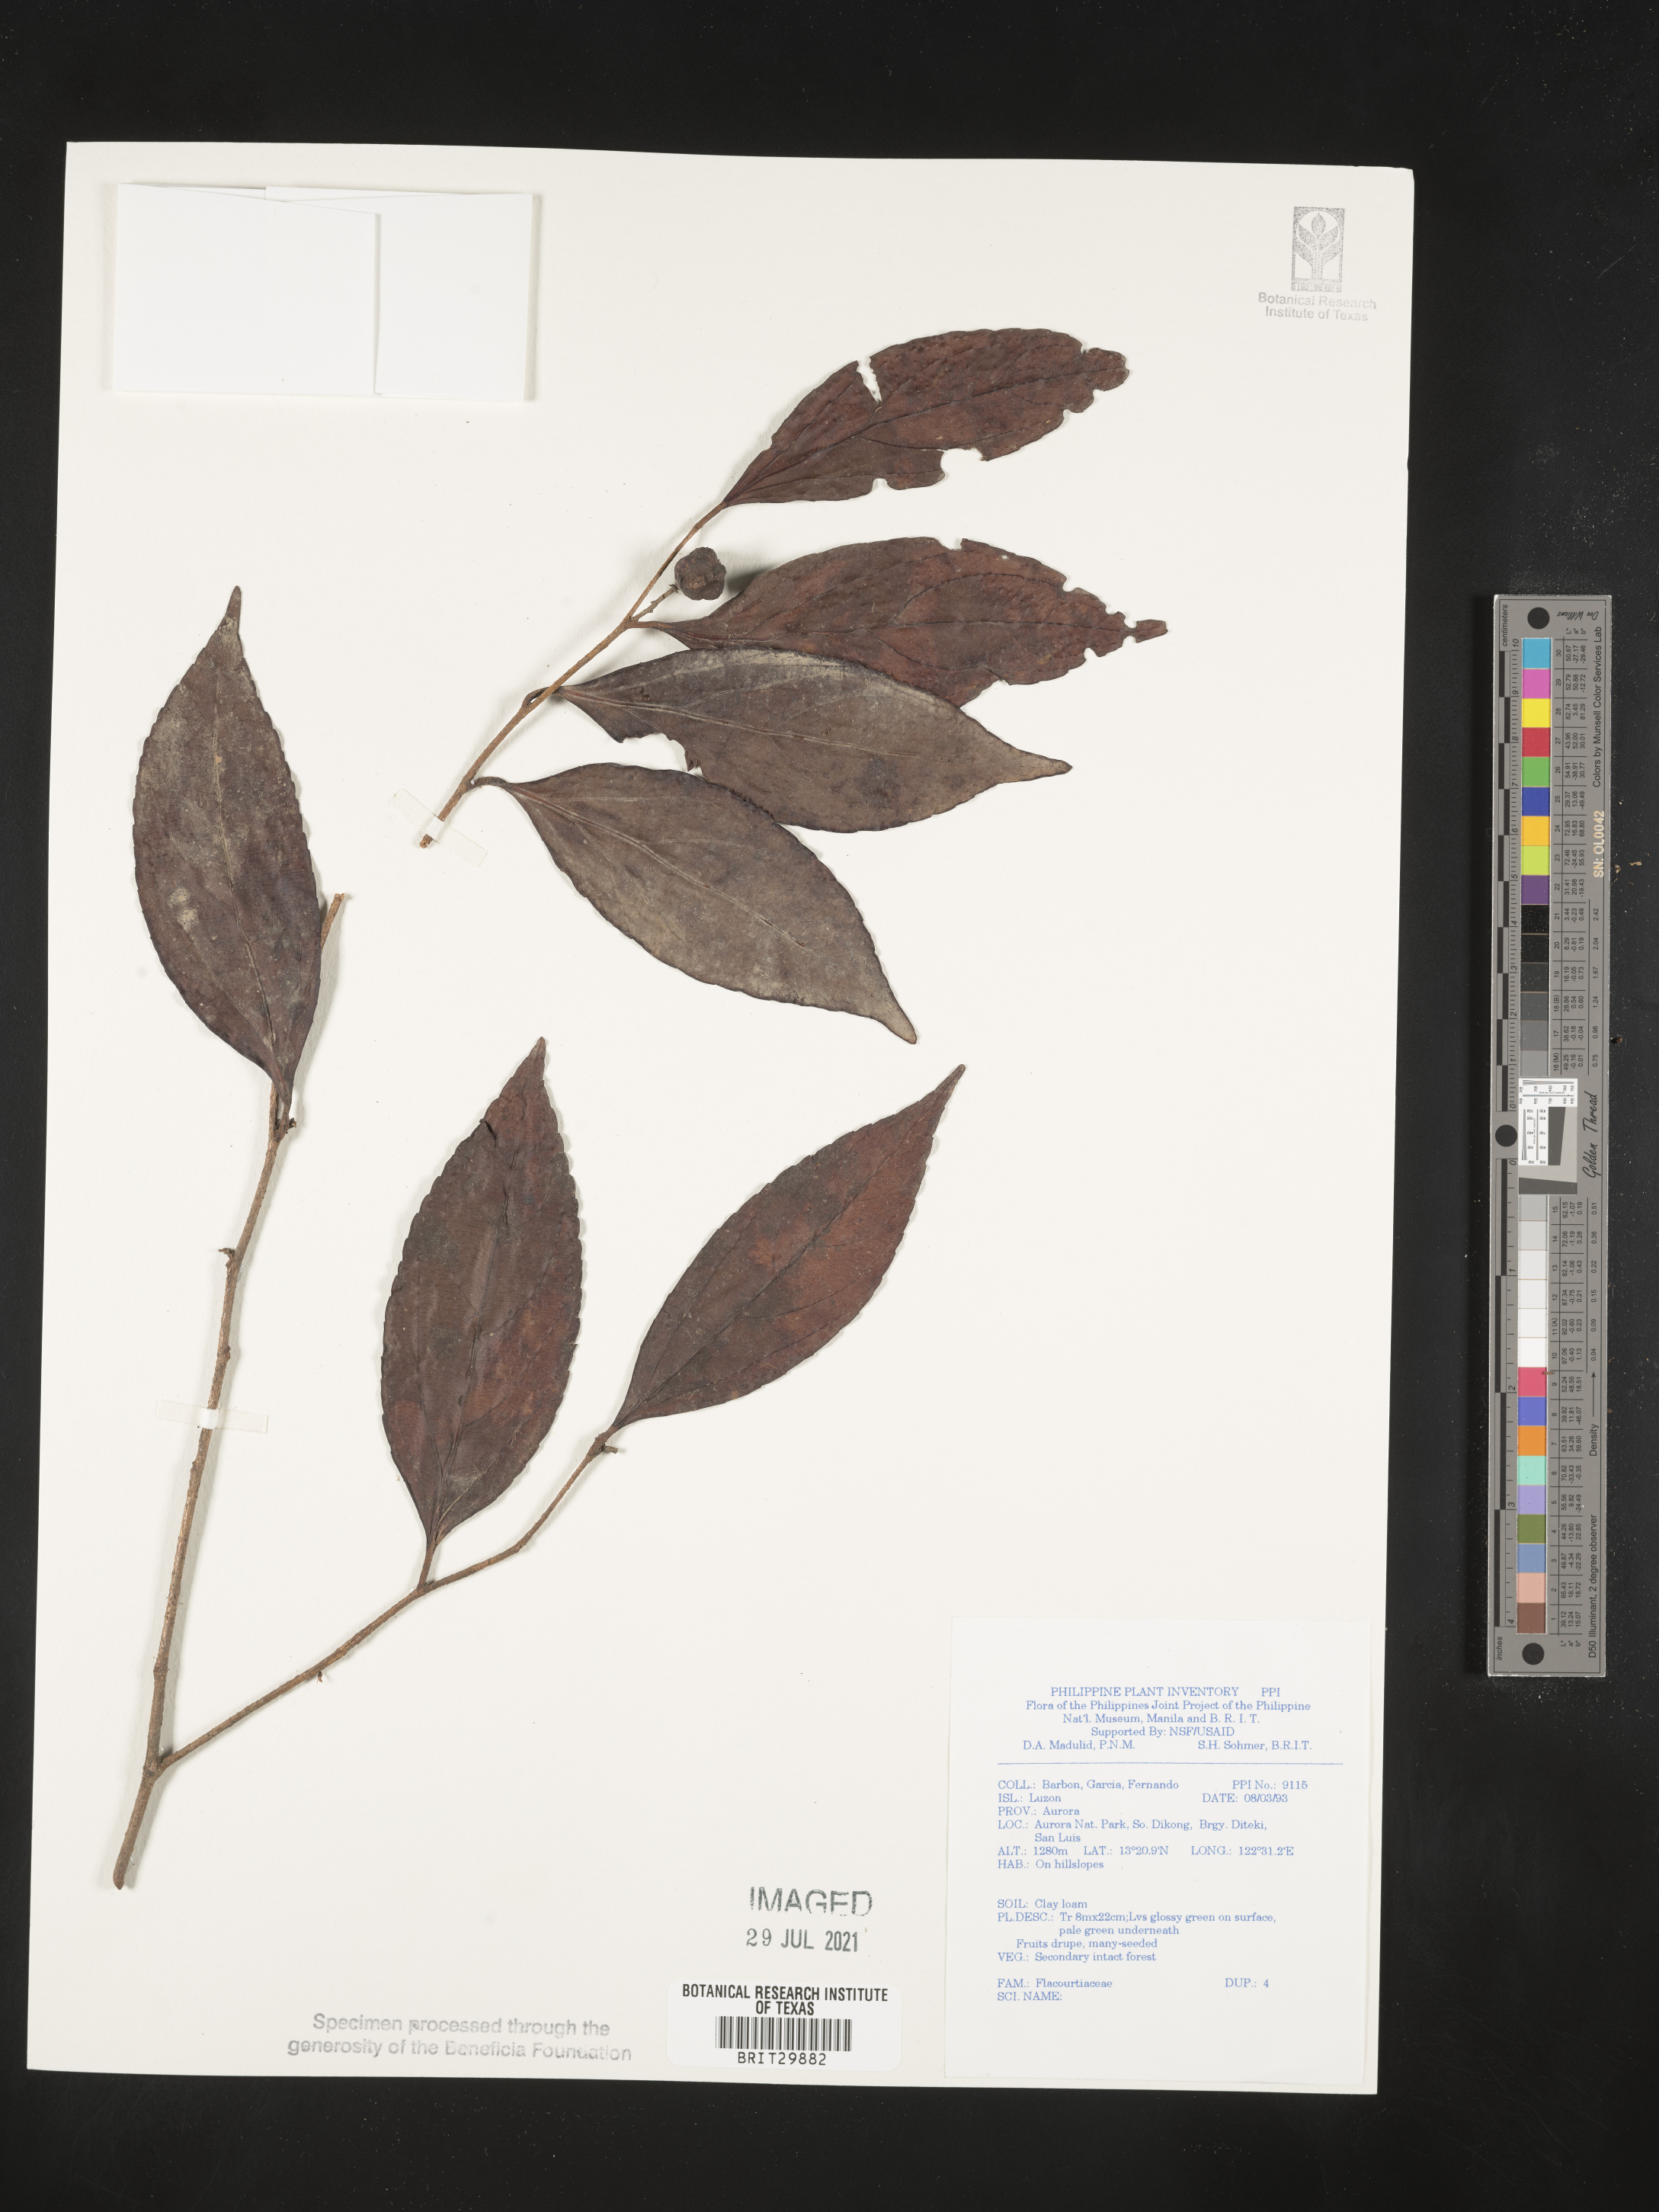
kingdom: Plantae
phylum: Tracheophyta
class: Magnoliopsida
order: Malpighiales
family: Flacourtiaceae
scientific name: Flacourtiaceae
